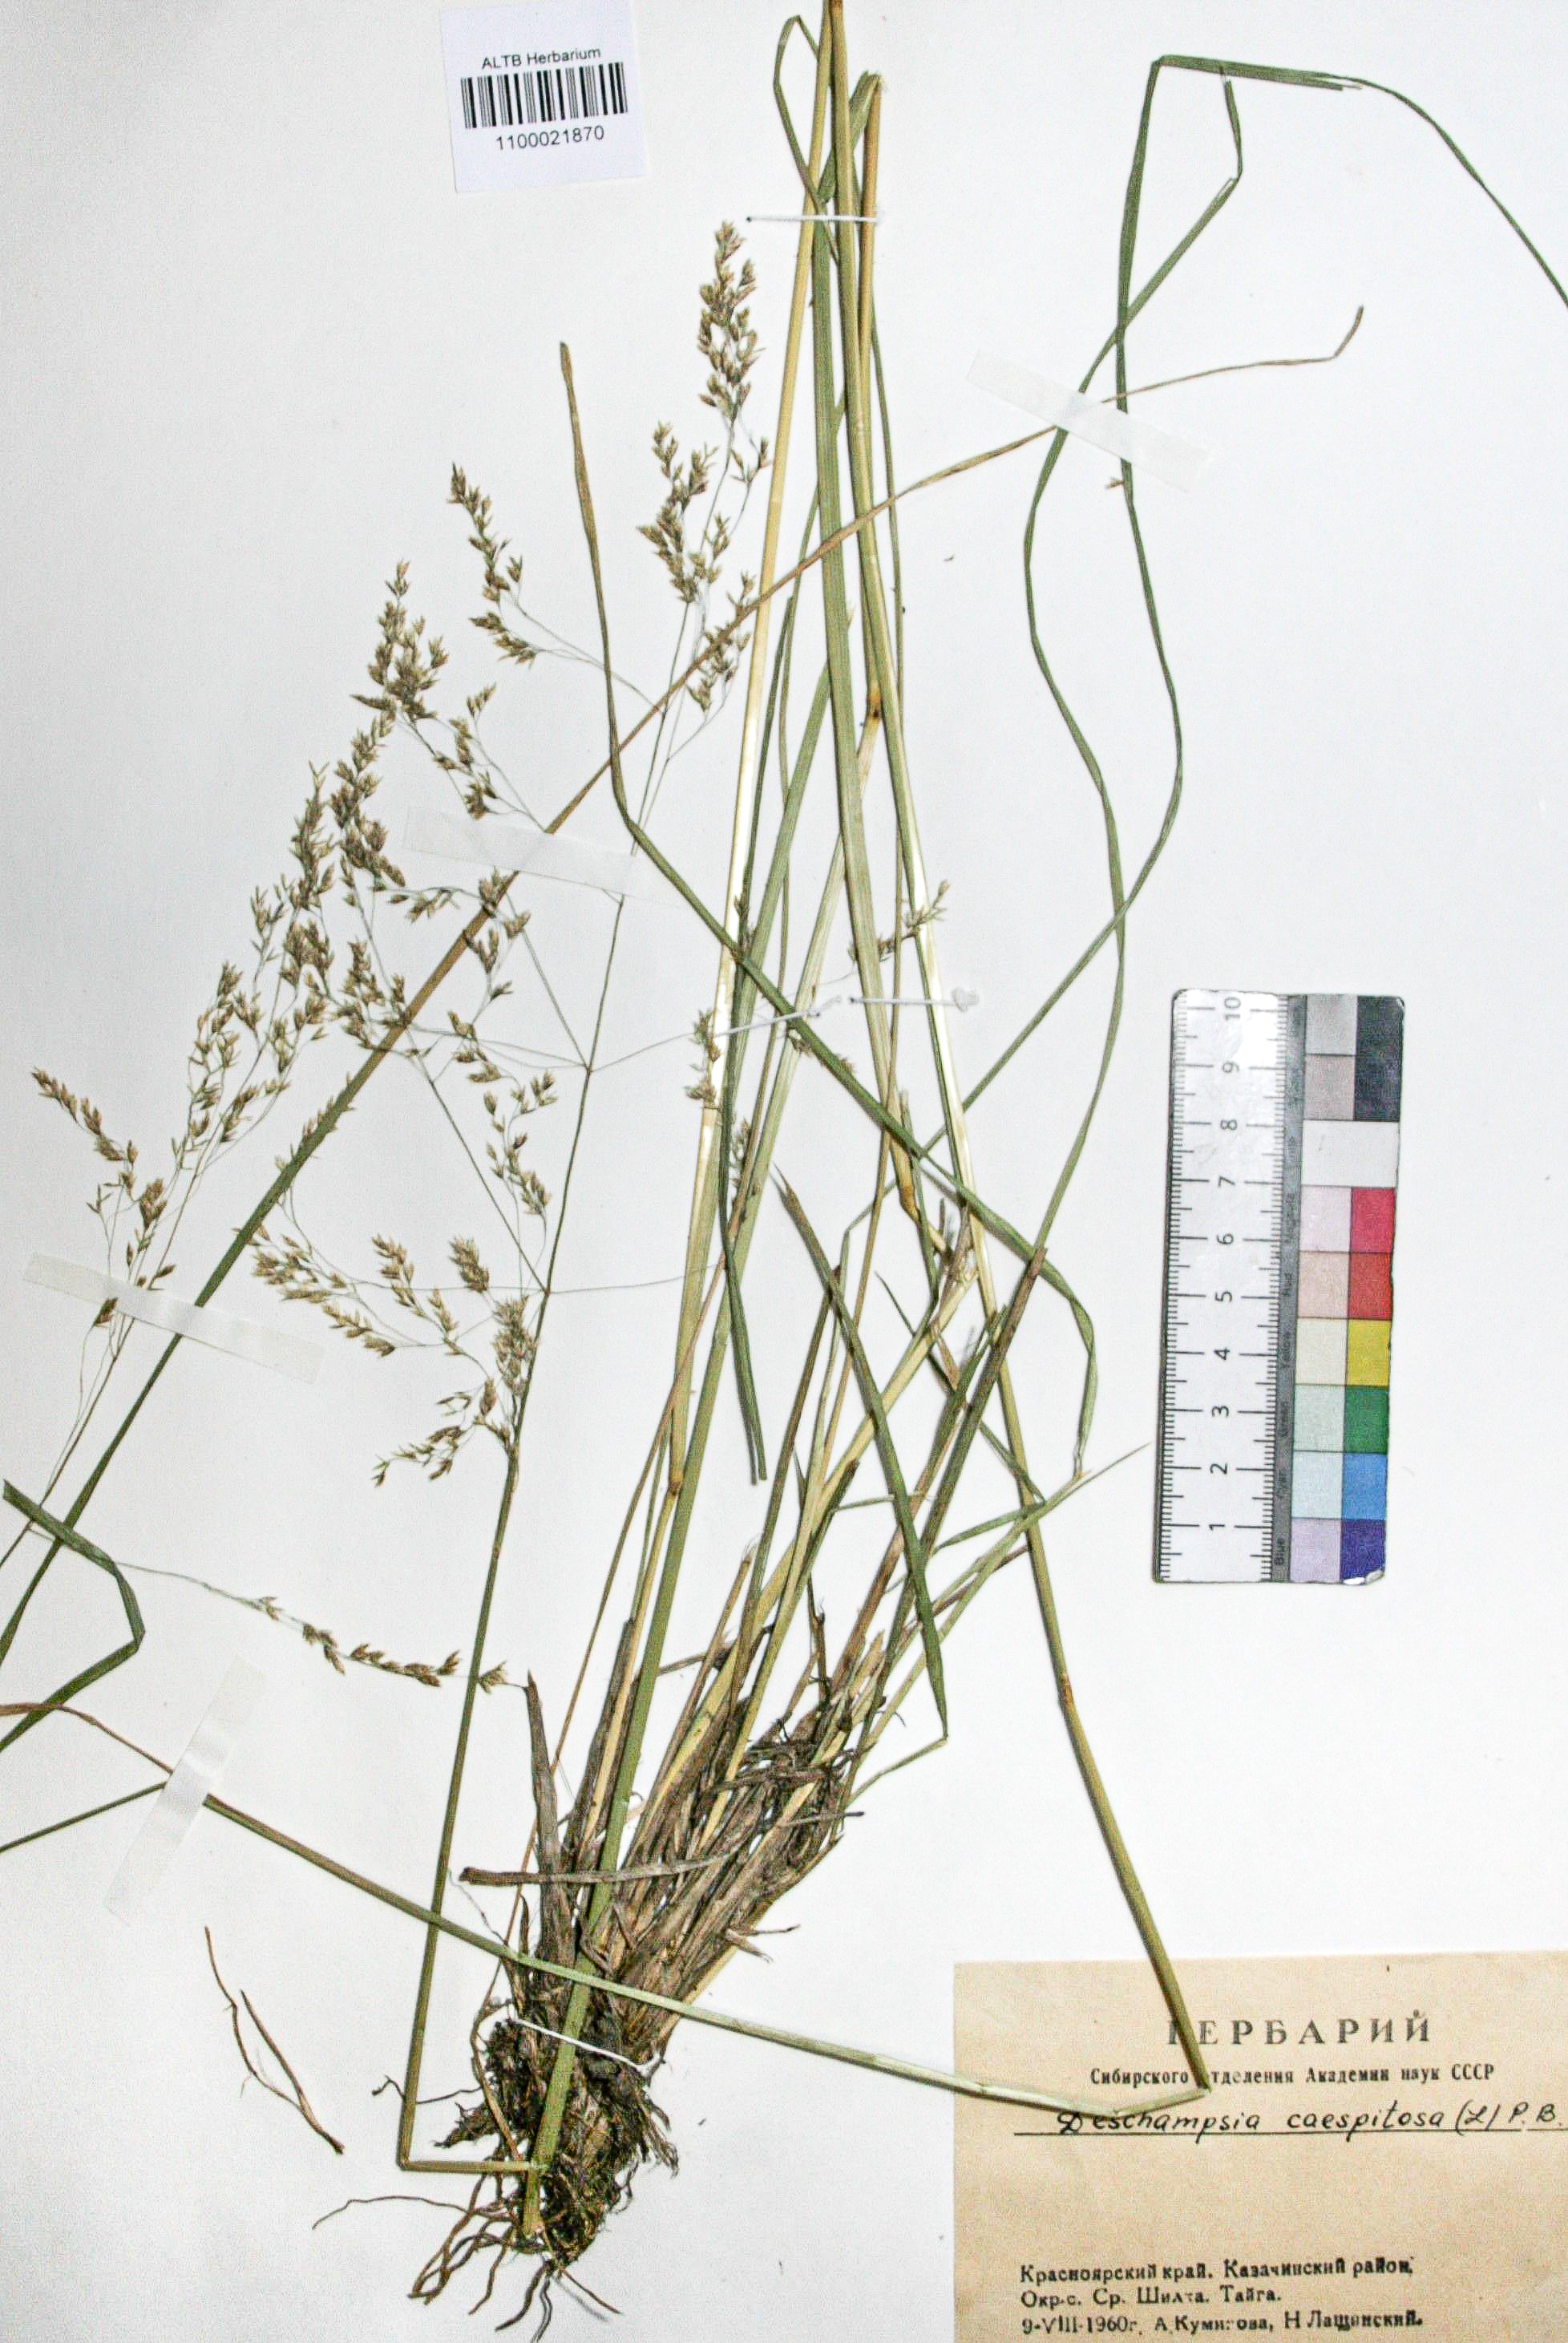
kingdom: Plantae
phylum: Tracheophyta
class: Liliopsida
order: Poales
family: Poaceae
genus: Deschampsia
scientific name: Deschampsia cespitosa
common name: Tufted hair-grass
